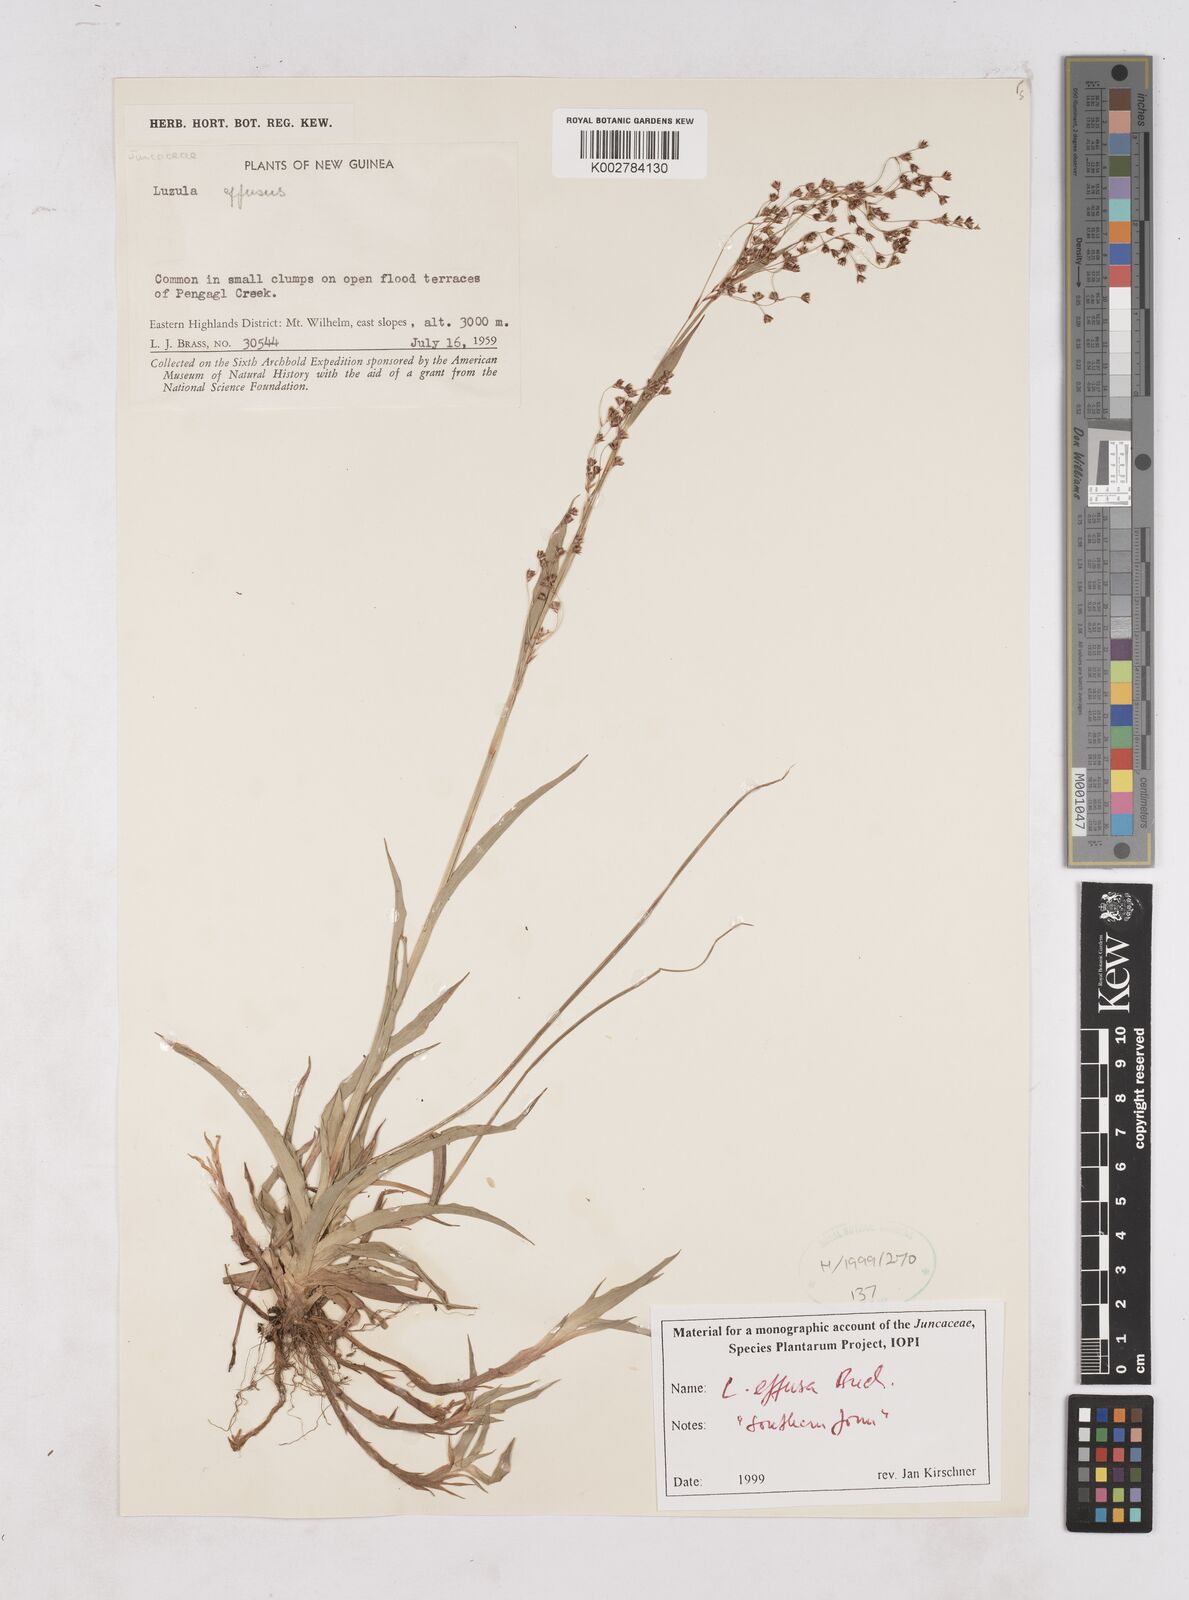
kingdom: Plantae
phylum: Tracheophyta
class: Liliopsida
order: Poales
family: Juncaceae
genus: Luzula
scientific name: Luzula effusa
